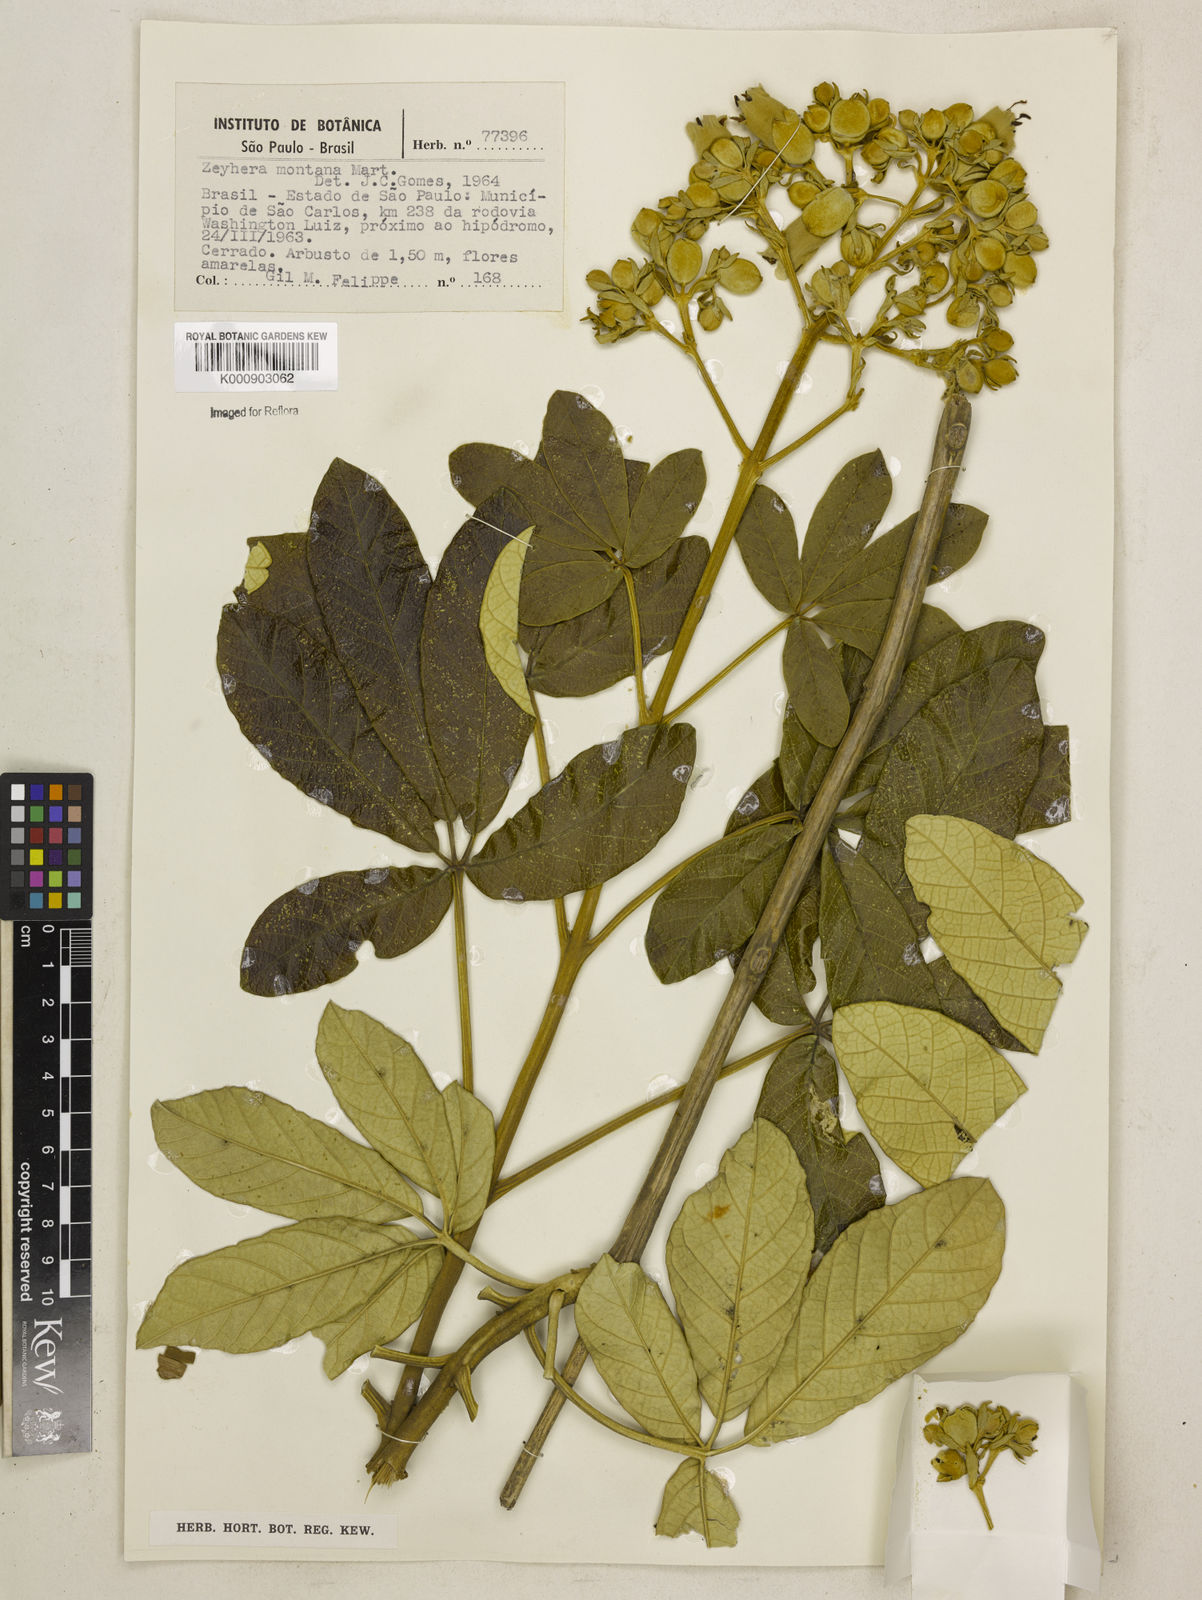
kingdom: Plantae
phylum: Tracheophyta
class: Magnoliopsida
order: Lamiales
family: Bignoniaceae
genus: Zeyheria
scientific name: Zeyheria
